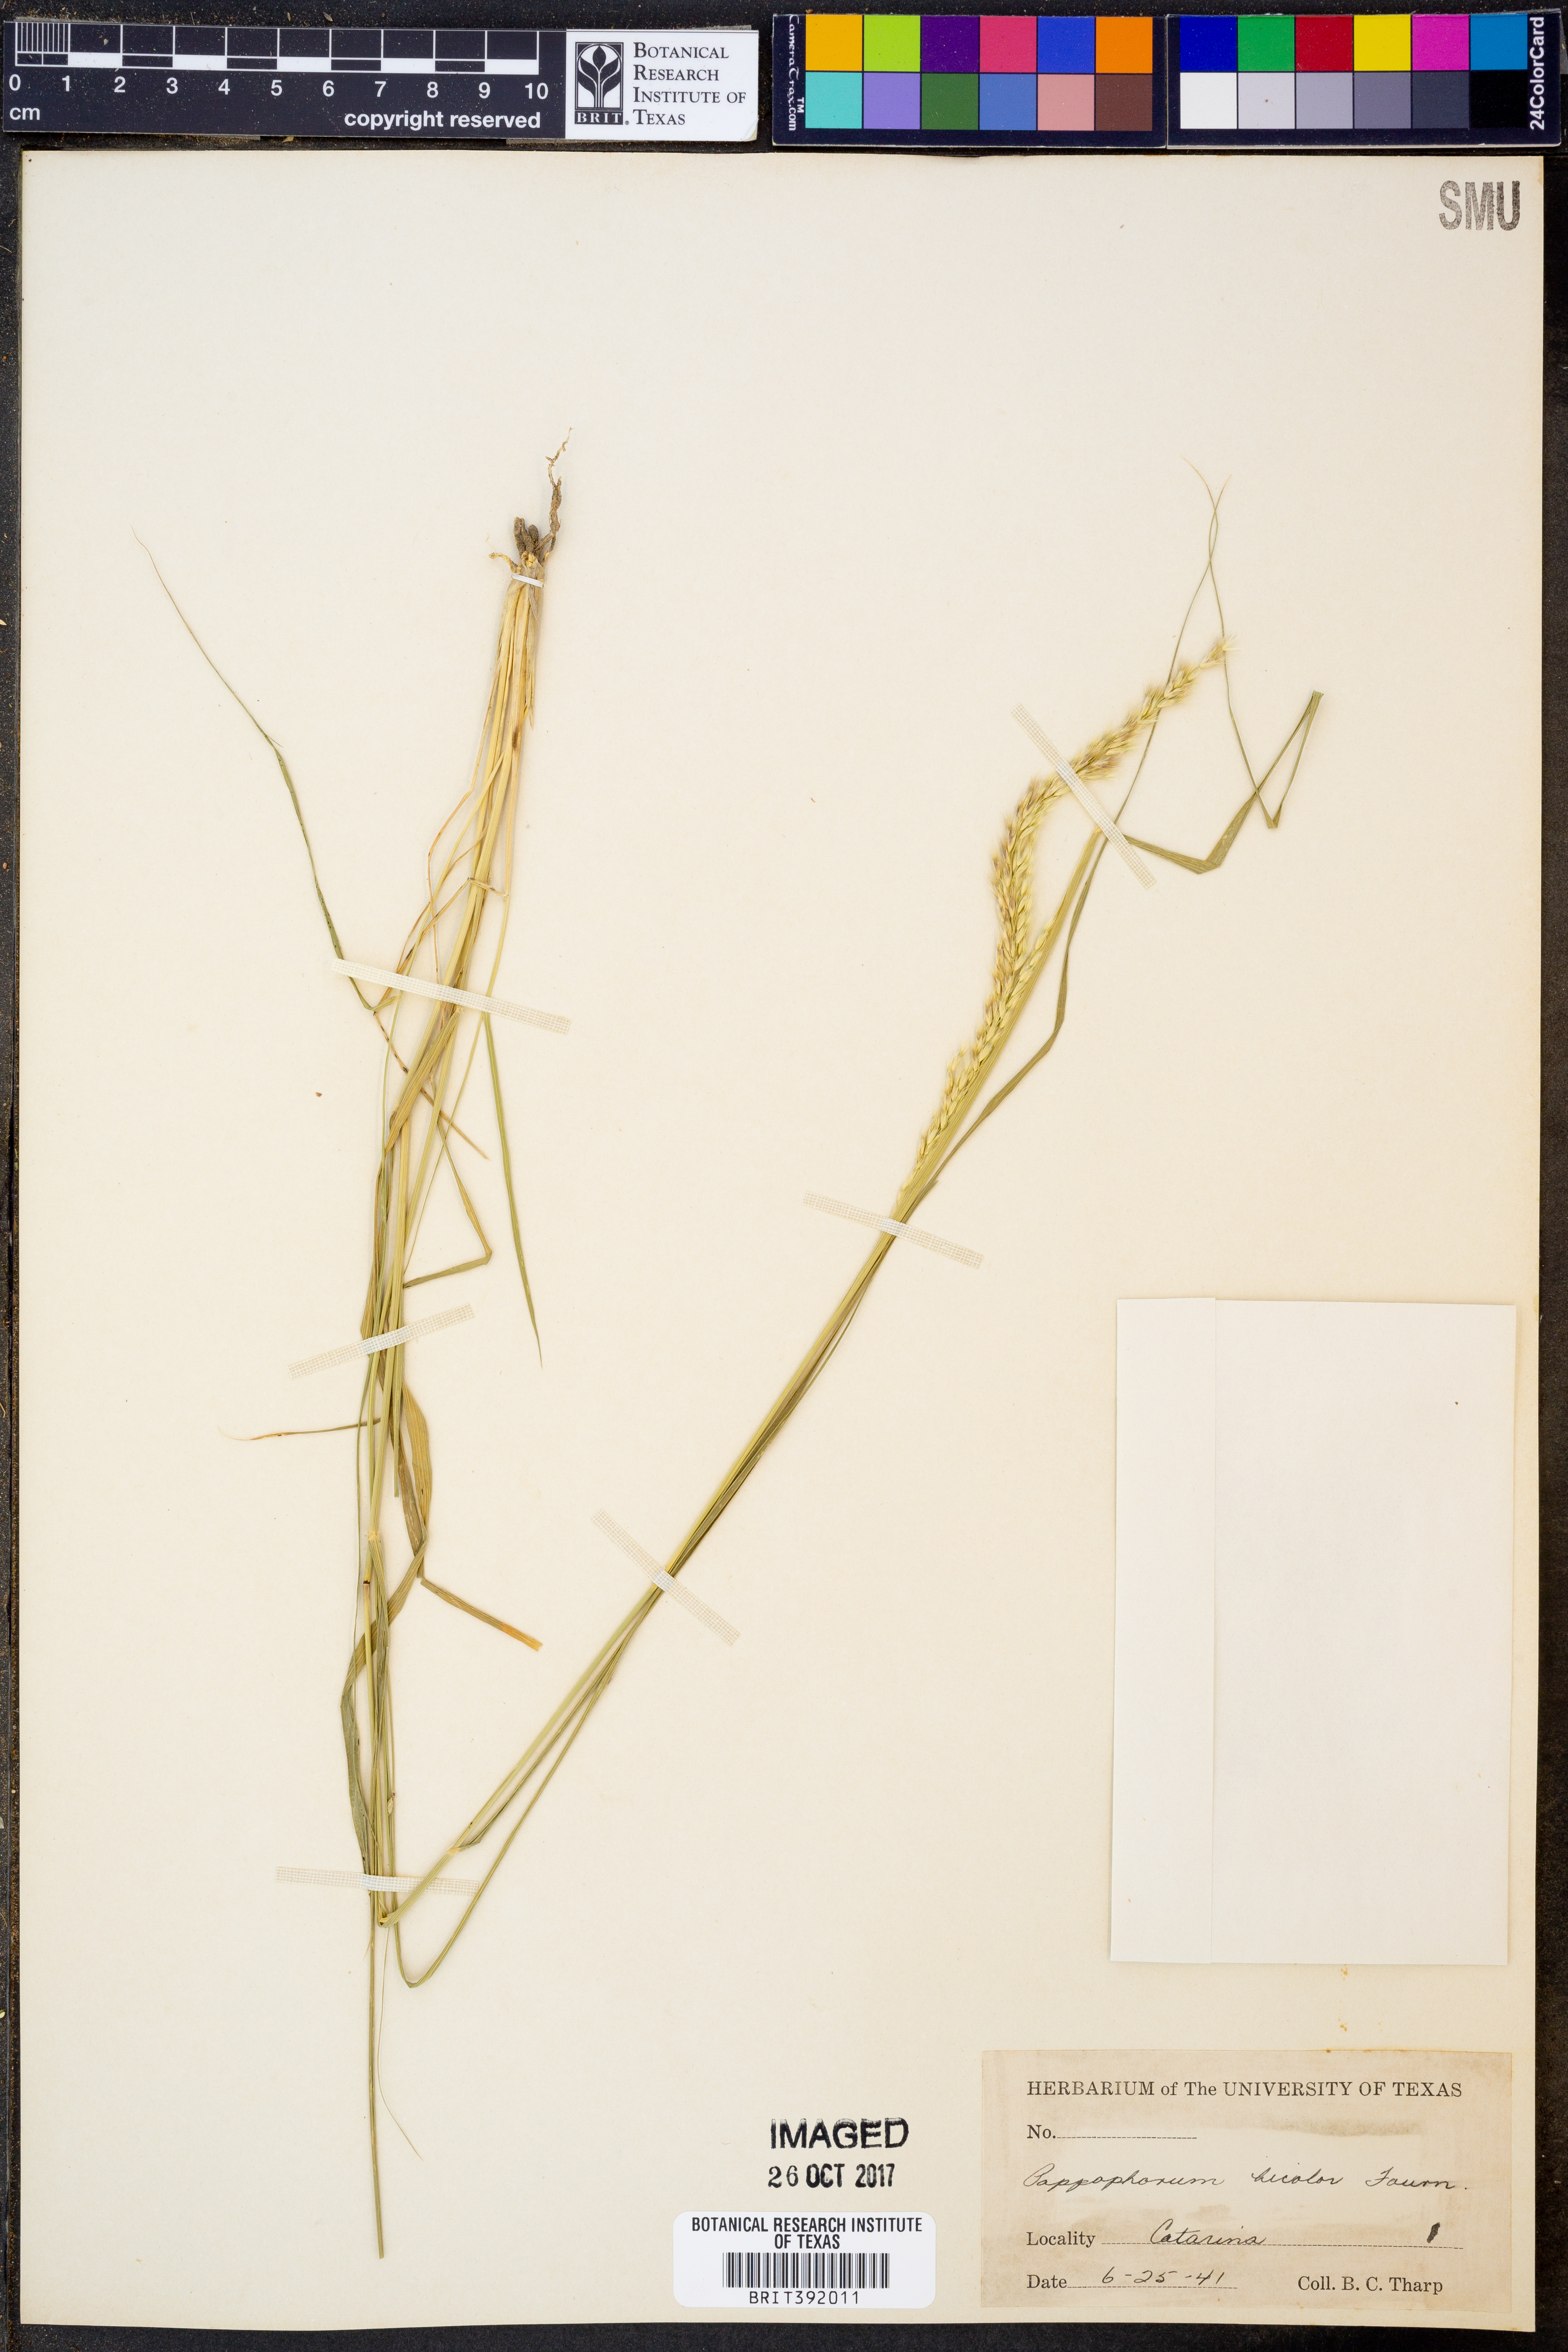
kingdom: Plantae
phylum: Tracheophyta
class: Liliopsida
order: Poales
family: Poaceae
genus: Pappophorum
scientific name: Pappophorum bicolor
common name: Pink pappus grass
